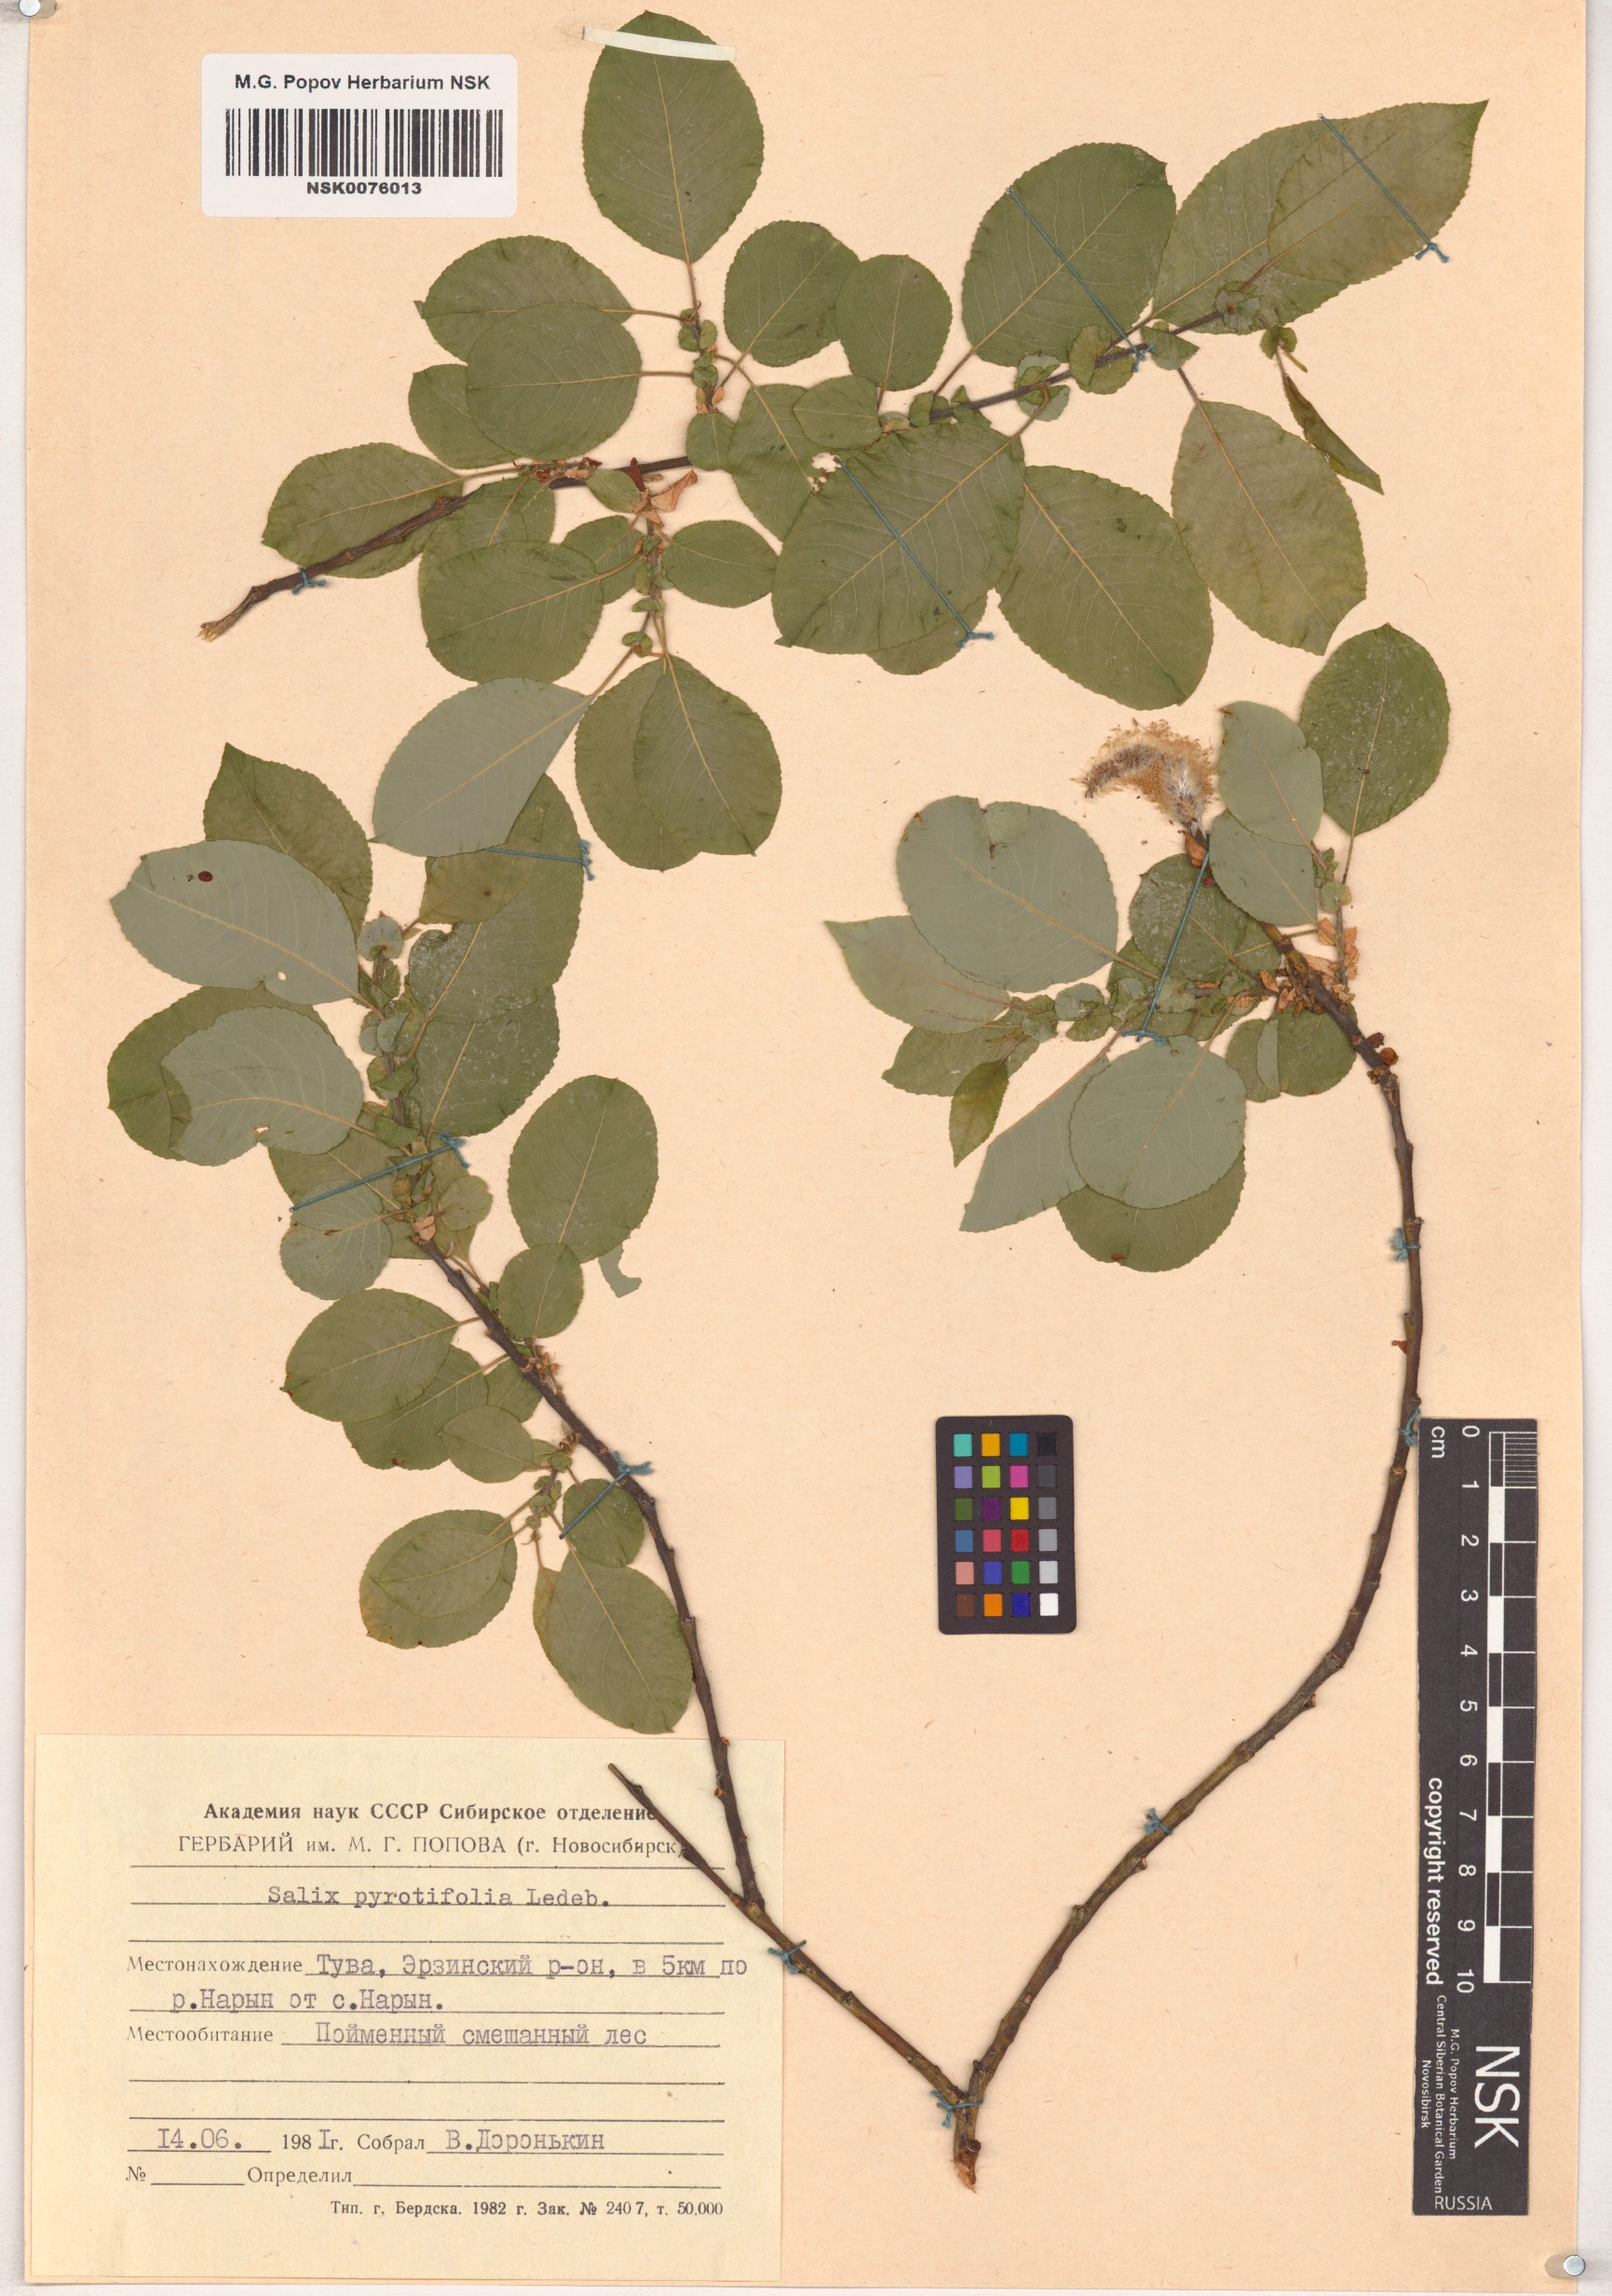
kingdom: Plantae
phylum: Tracheophyta
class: Magnoliopsida
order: Malpighiales
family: Salicaceae
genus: Salix
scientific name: Salix pyrolifolia
